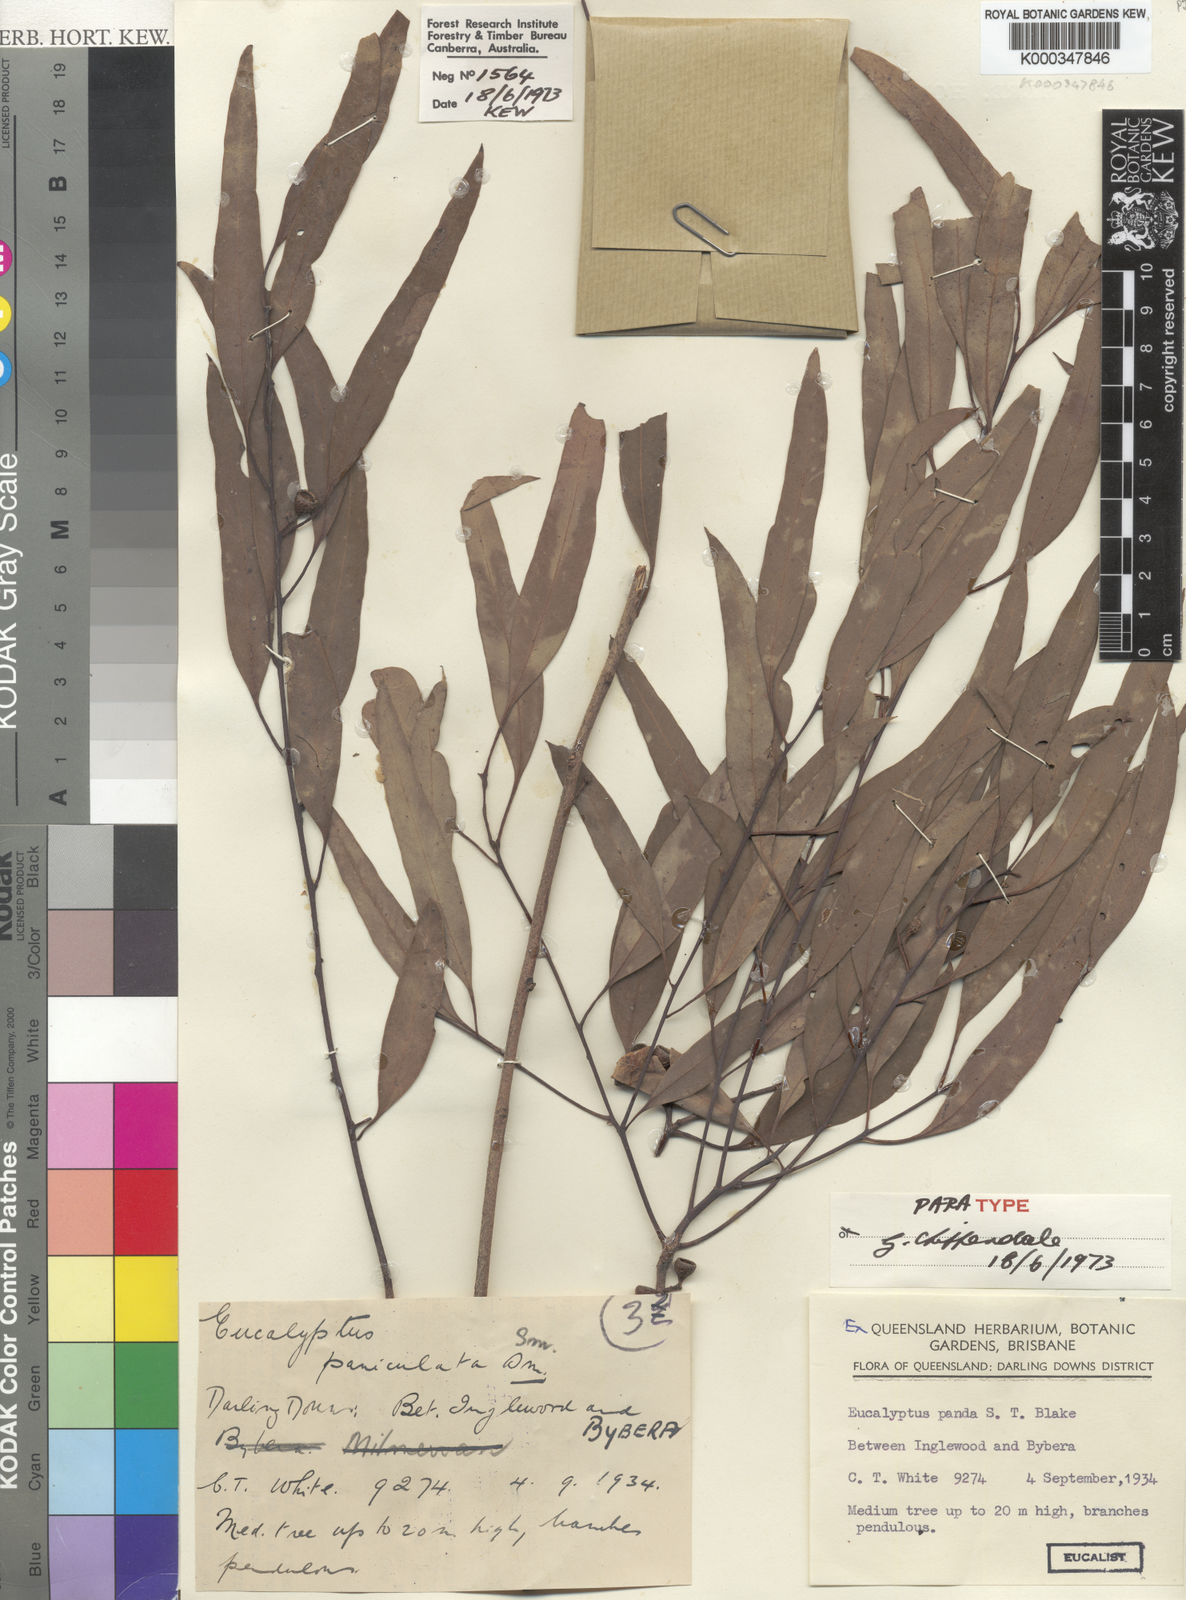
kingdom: Plantae
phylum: Tracheophyta
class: Magnoliopsida
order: Myrtales
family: Myrtaceae
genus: Eucalyptus
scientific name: Eucalyptus panda
